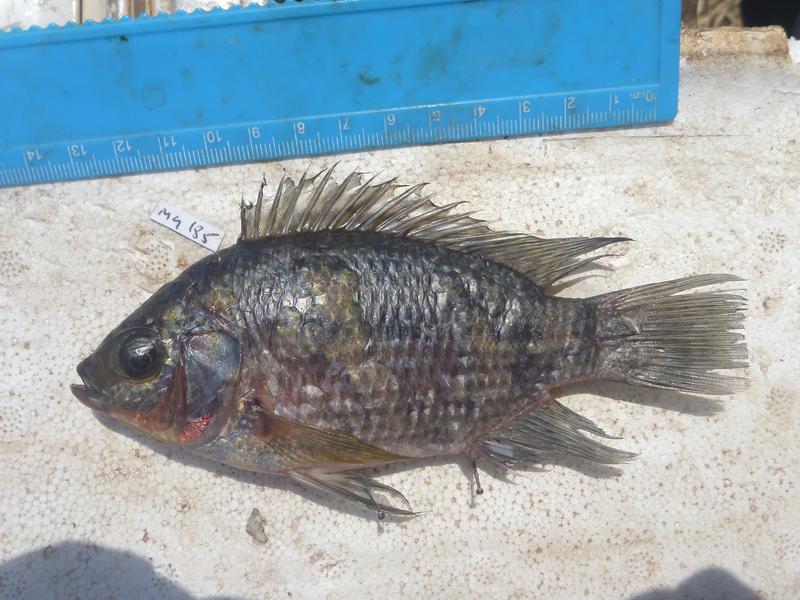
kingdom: Animalia
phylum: Chordata
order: Perciformes
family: Cichlidae
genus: Oreochromis
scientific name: Oreochromis upembae
